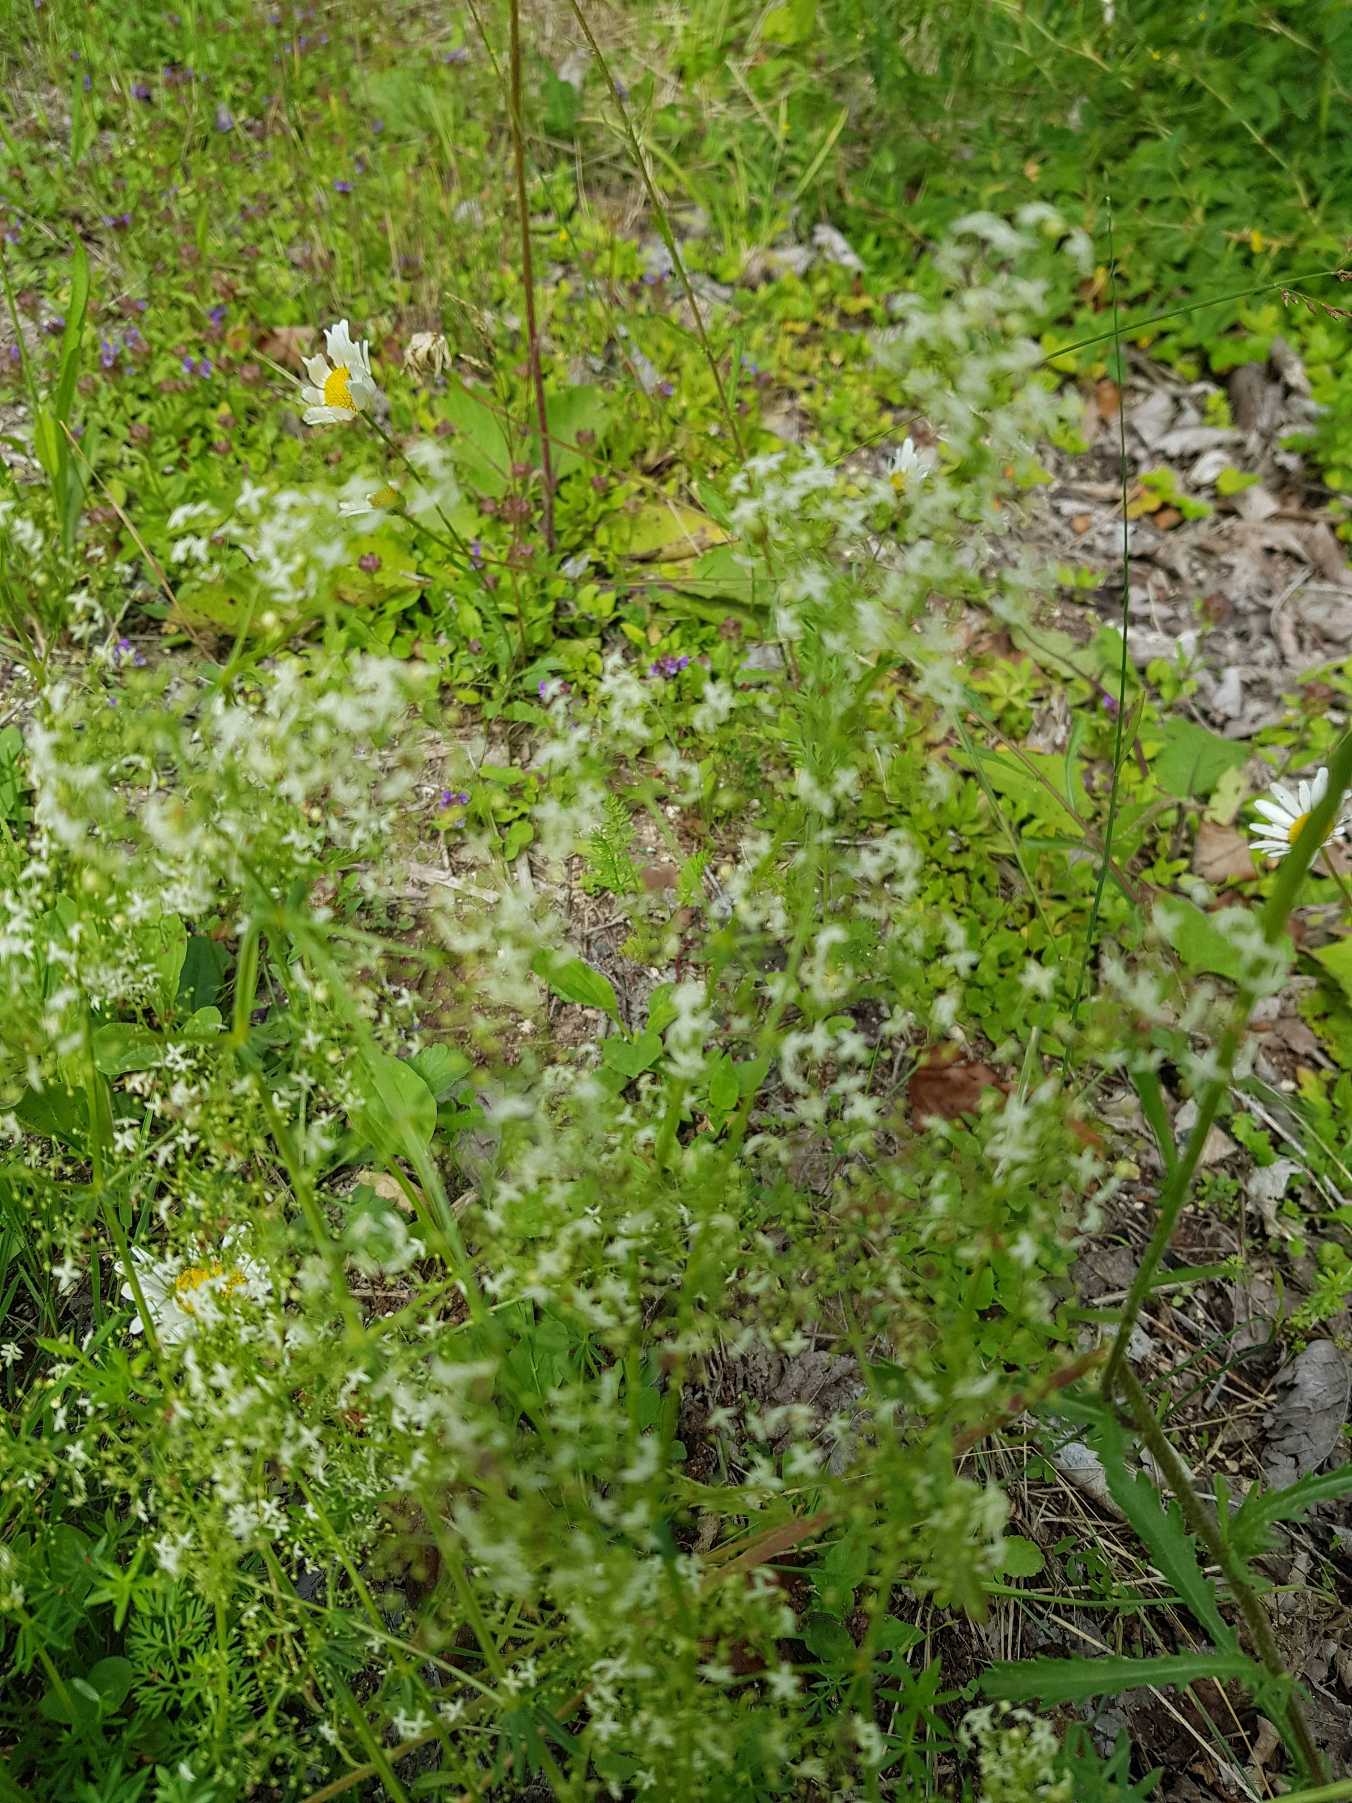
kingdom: Plantae
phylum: Tracheophyta
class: Magnoliopsida
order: Gentianales
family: Rubiaceae
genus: Galium
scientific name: Galium mollugo
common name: Hvid snerre
